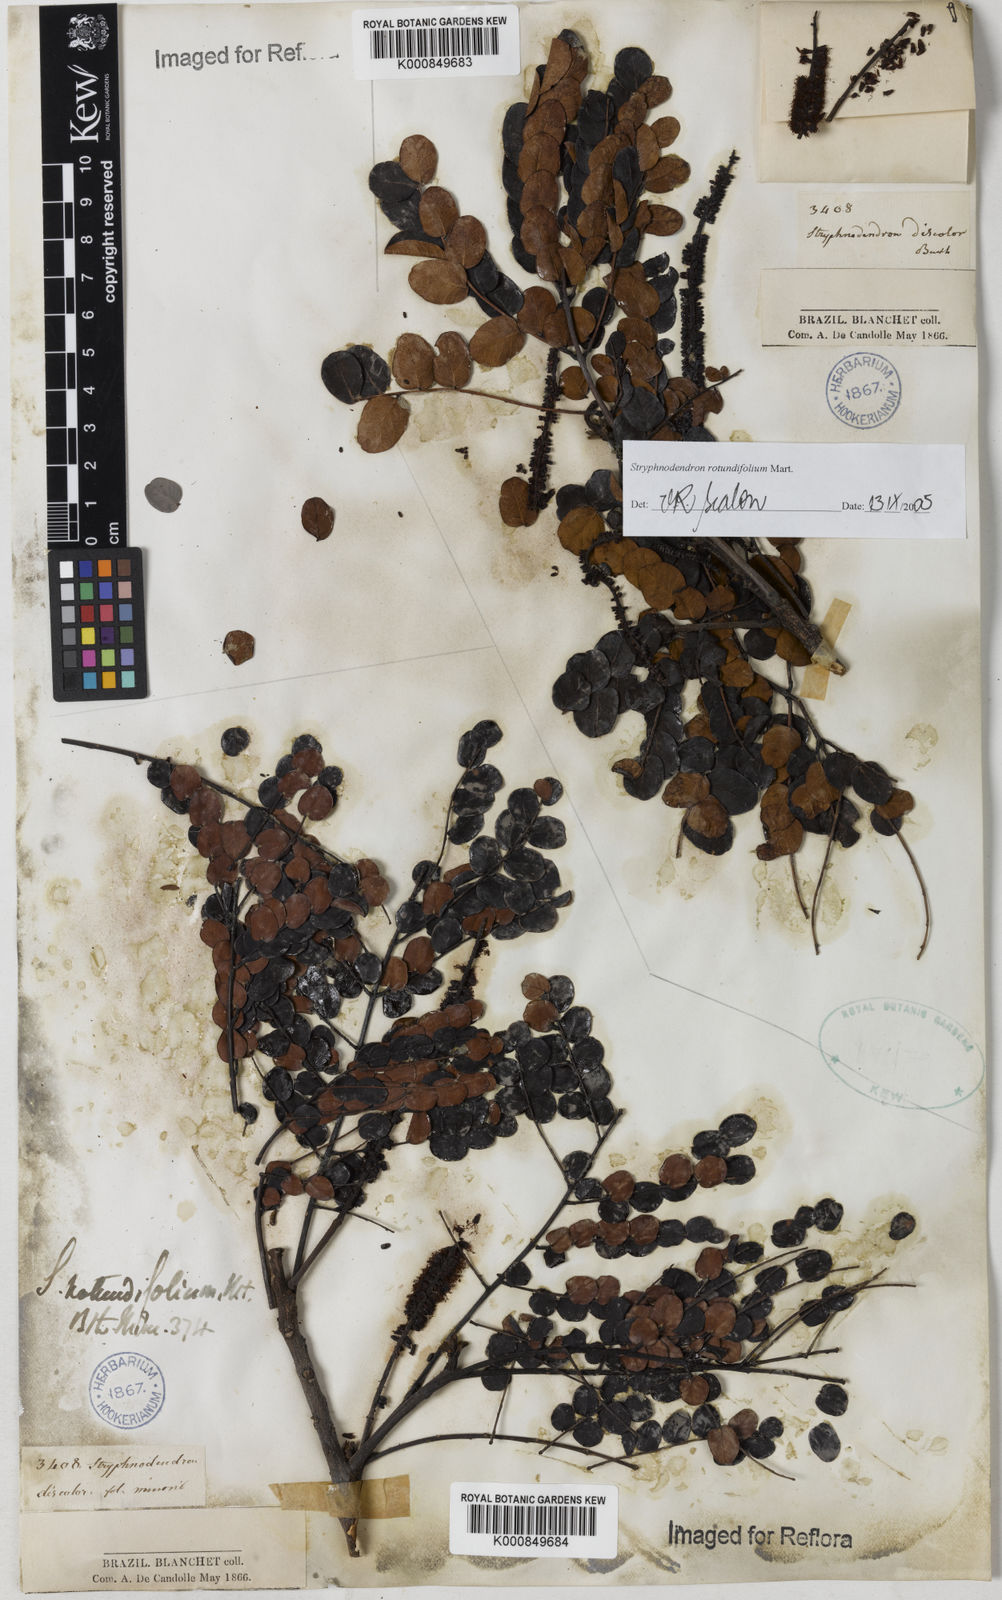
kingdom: Plantae
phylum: Tracheophyta
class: Magnoliopsida
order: Fabales
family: Fabaceae
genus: Stryphnodendron
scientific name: Stryphnodendron rotundifolium
